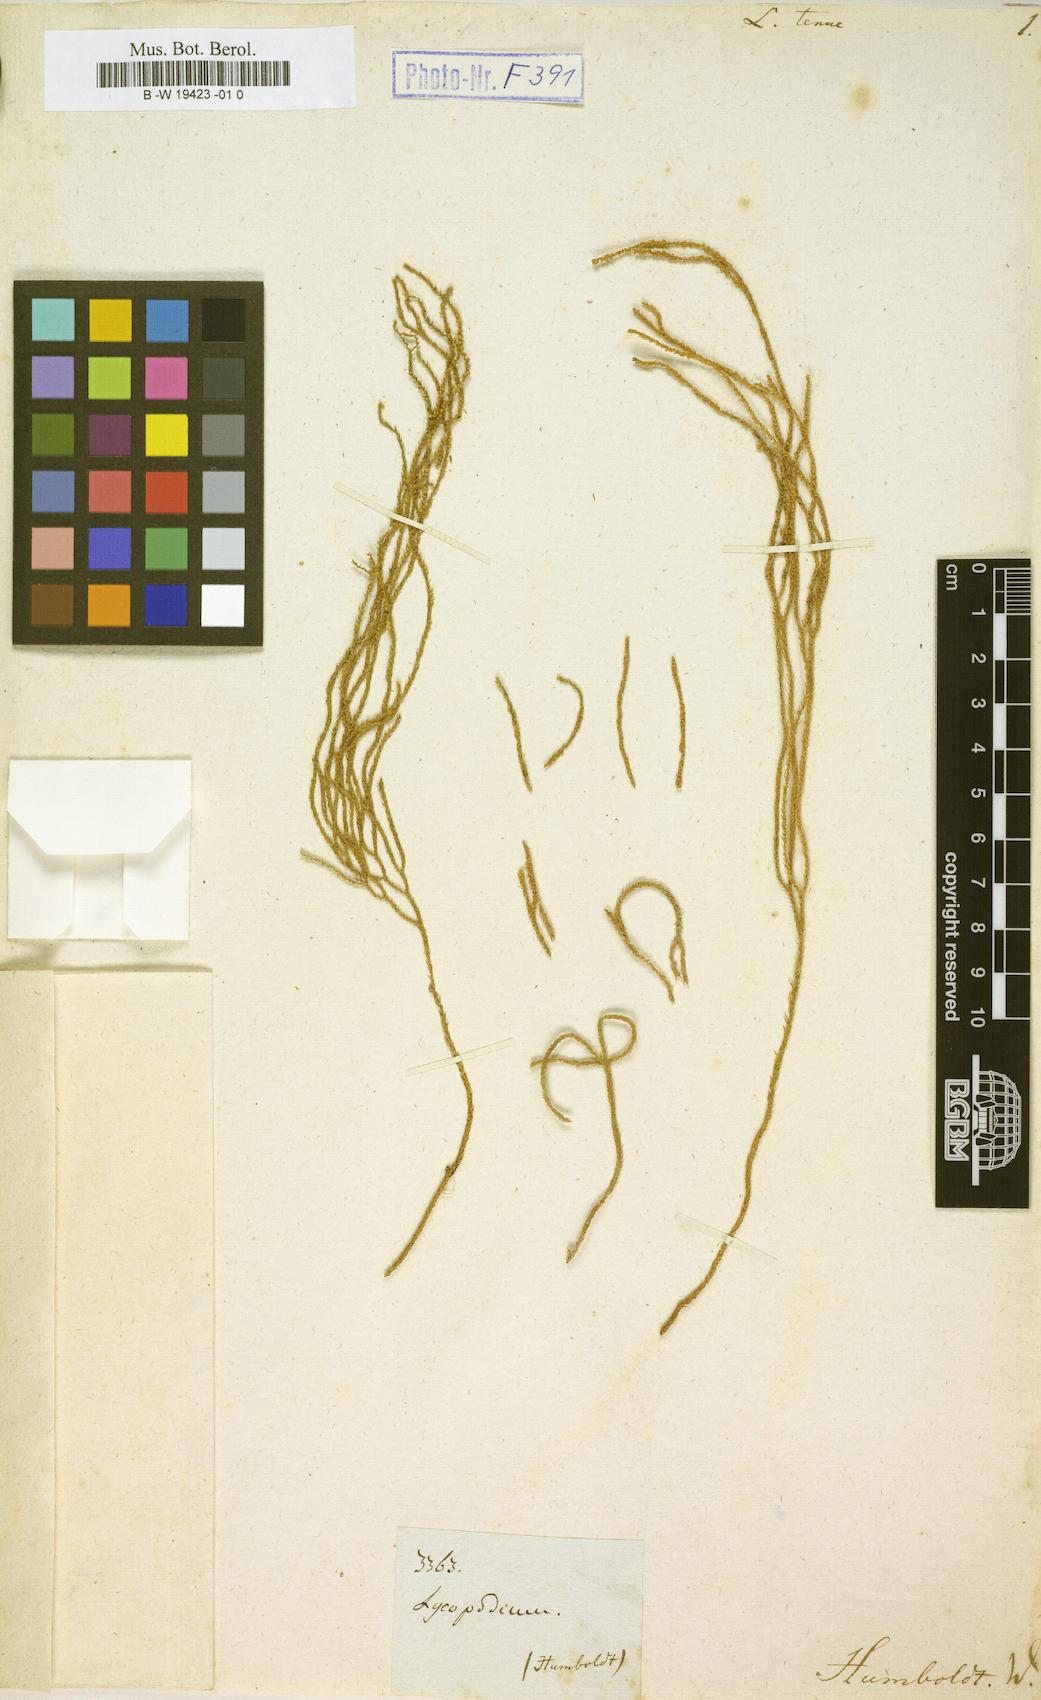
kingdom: Plantae
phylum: Tracheophyta
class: Lycopodiopsida
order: Lycopodiales
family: Lycopodiaceae
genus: Phlegmariurus
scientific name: Phlegmariurus tenuis
